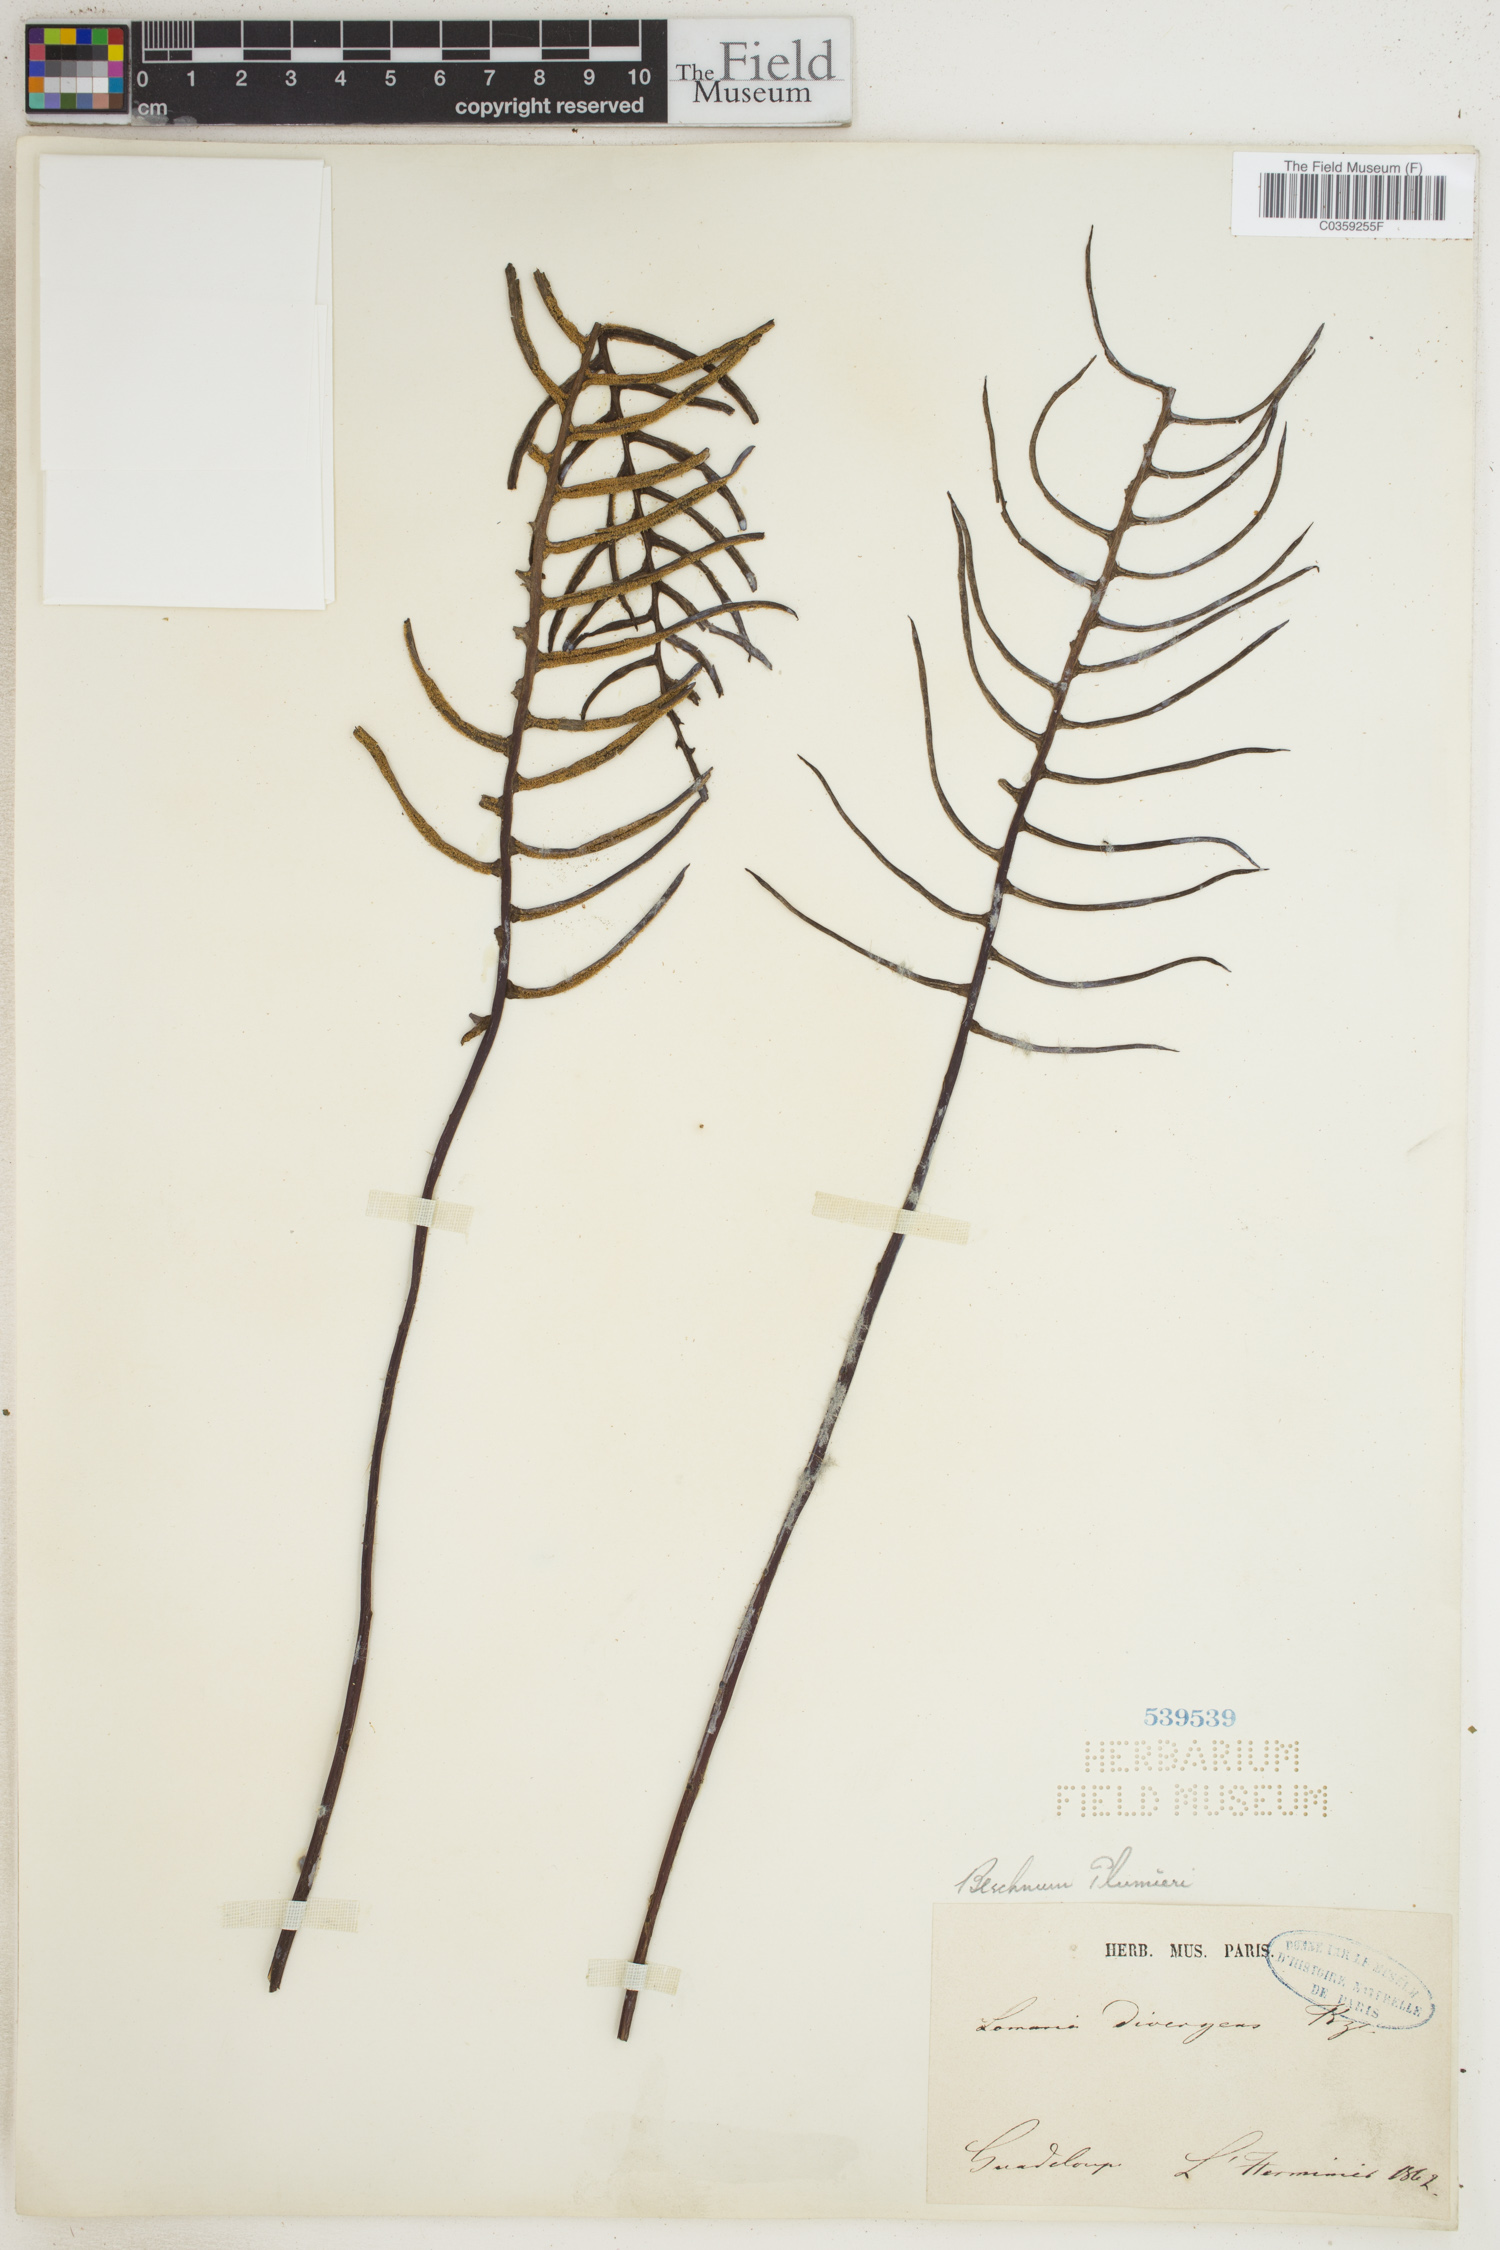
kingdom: Plantae
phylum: Tracheophyta
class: Polypodiopsida
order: Polypodiales
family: Blechnaceae
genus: Lomaridium
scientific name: Lomaridium binervatum
